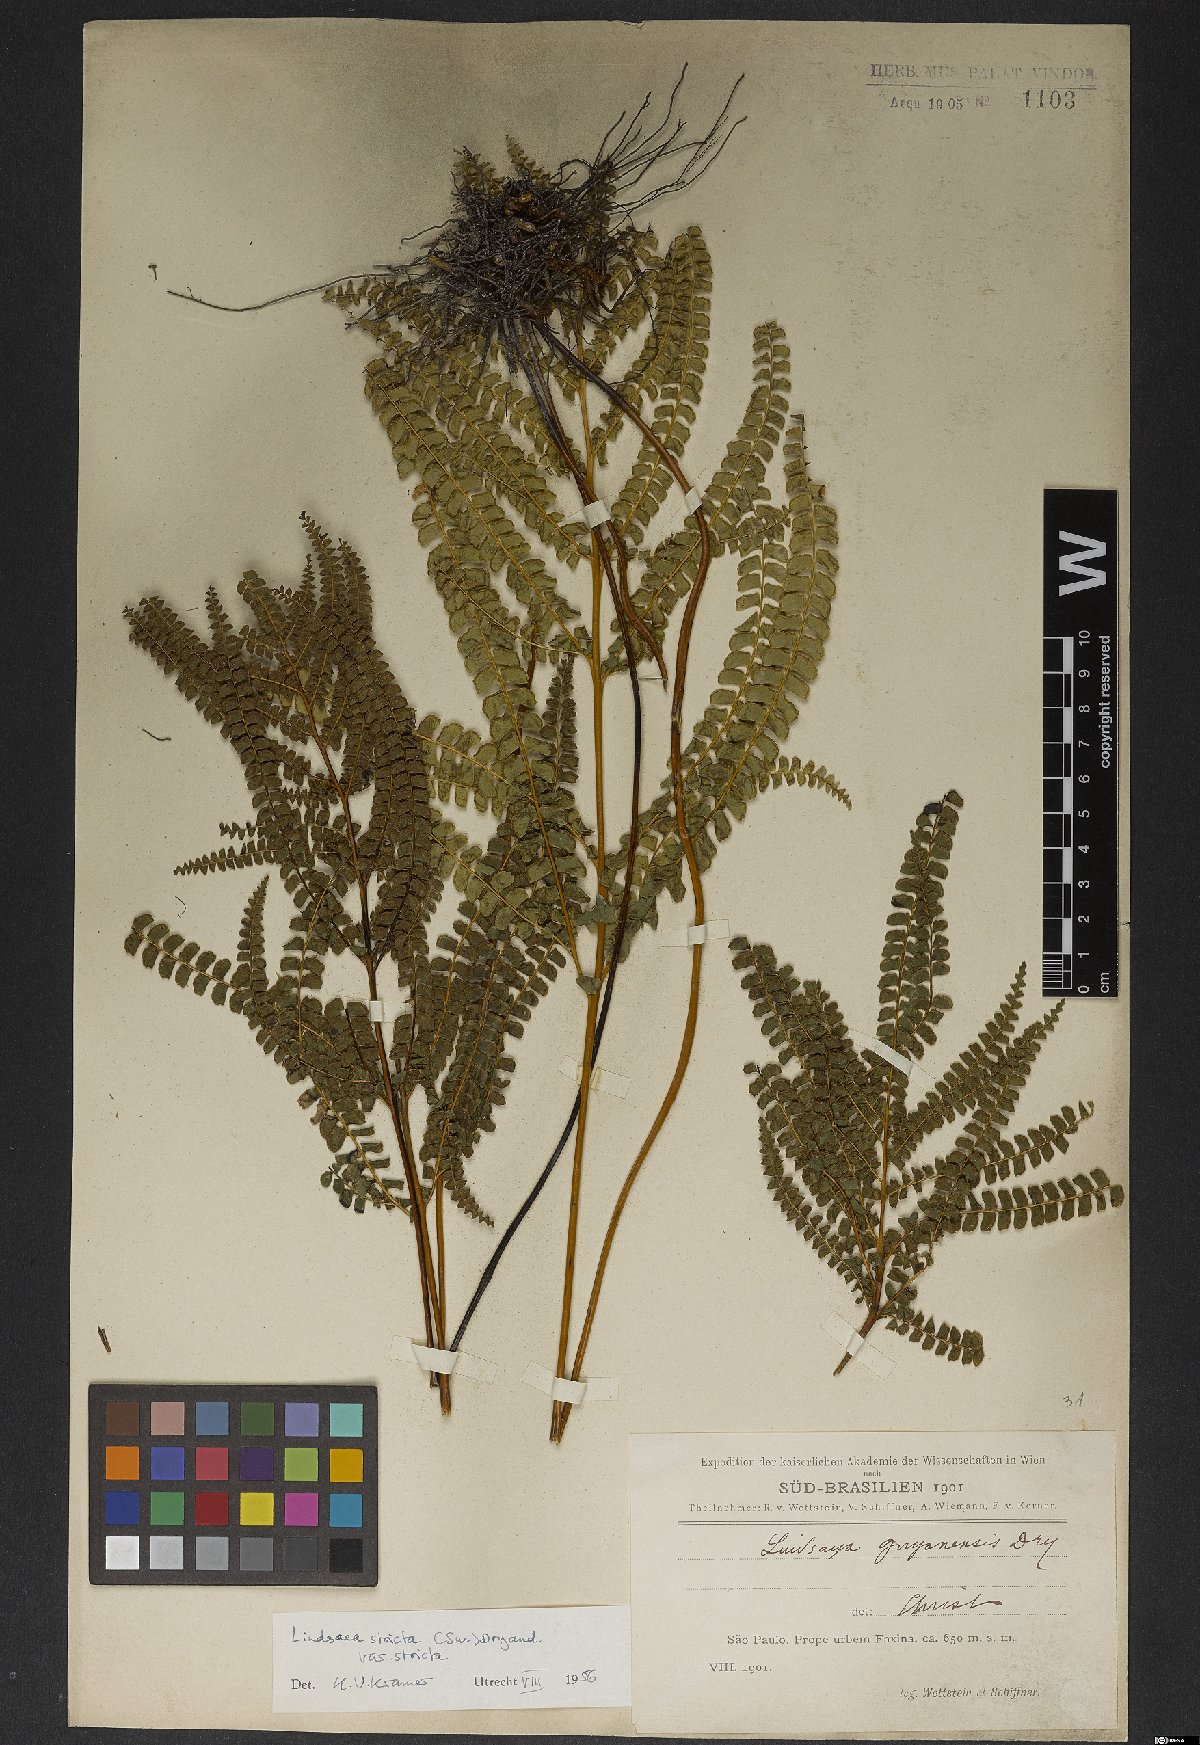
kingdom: Plantae
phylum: Tracheophyta
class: Polypodiopsida
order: Polypodiales
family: Lindsaeaceae
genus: Lindsaea
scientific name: Lindsaea stricta
